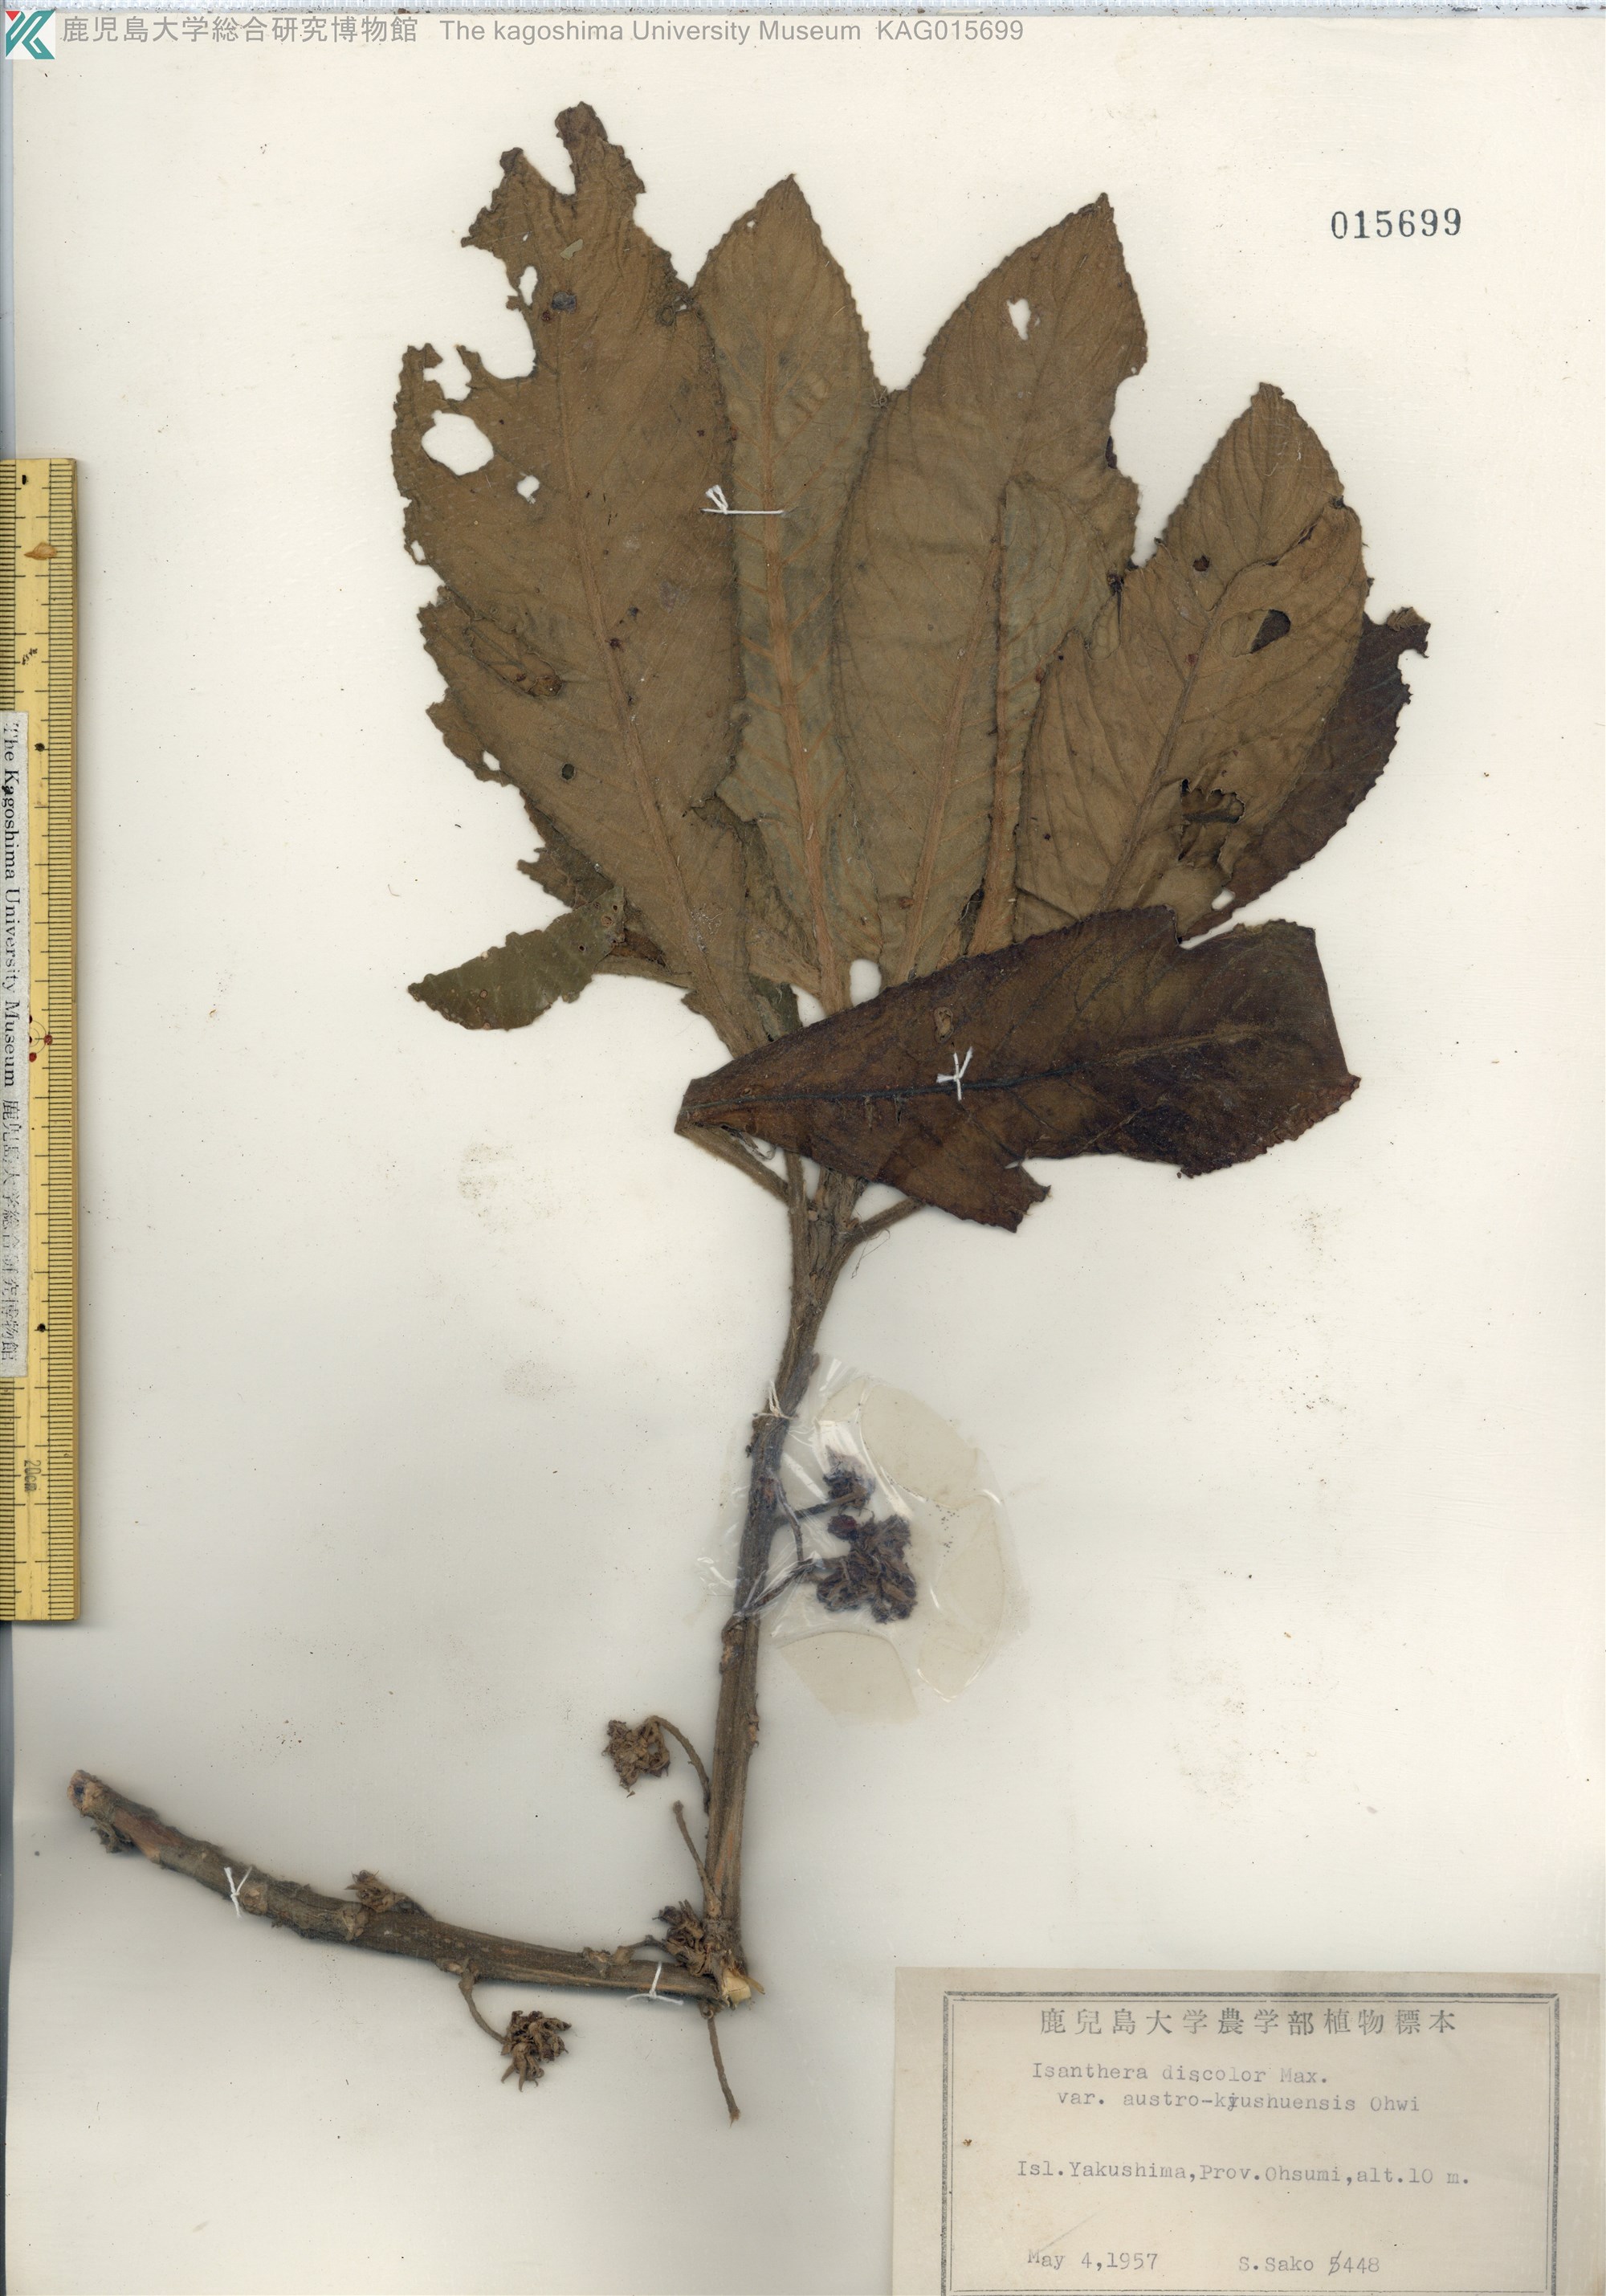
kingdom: Plantae
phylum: Tracheophyta
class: Magnoliopsida
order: Lamiales
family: Gesneriaceae
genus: Rhynchotechum
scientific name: Rhynchotechum discolor
